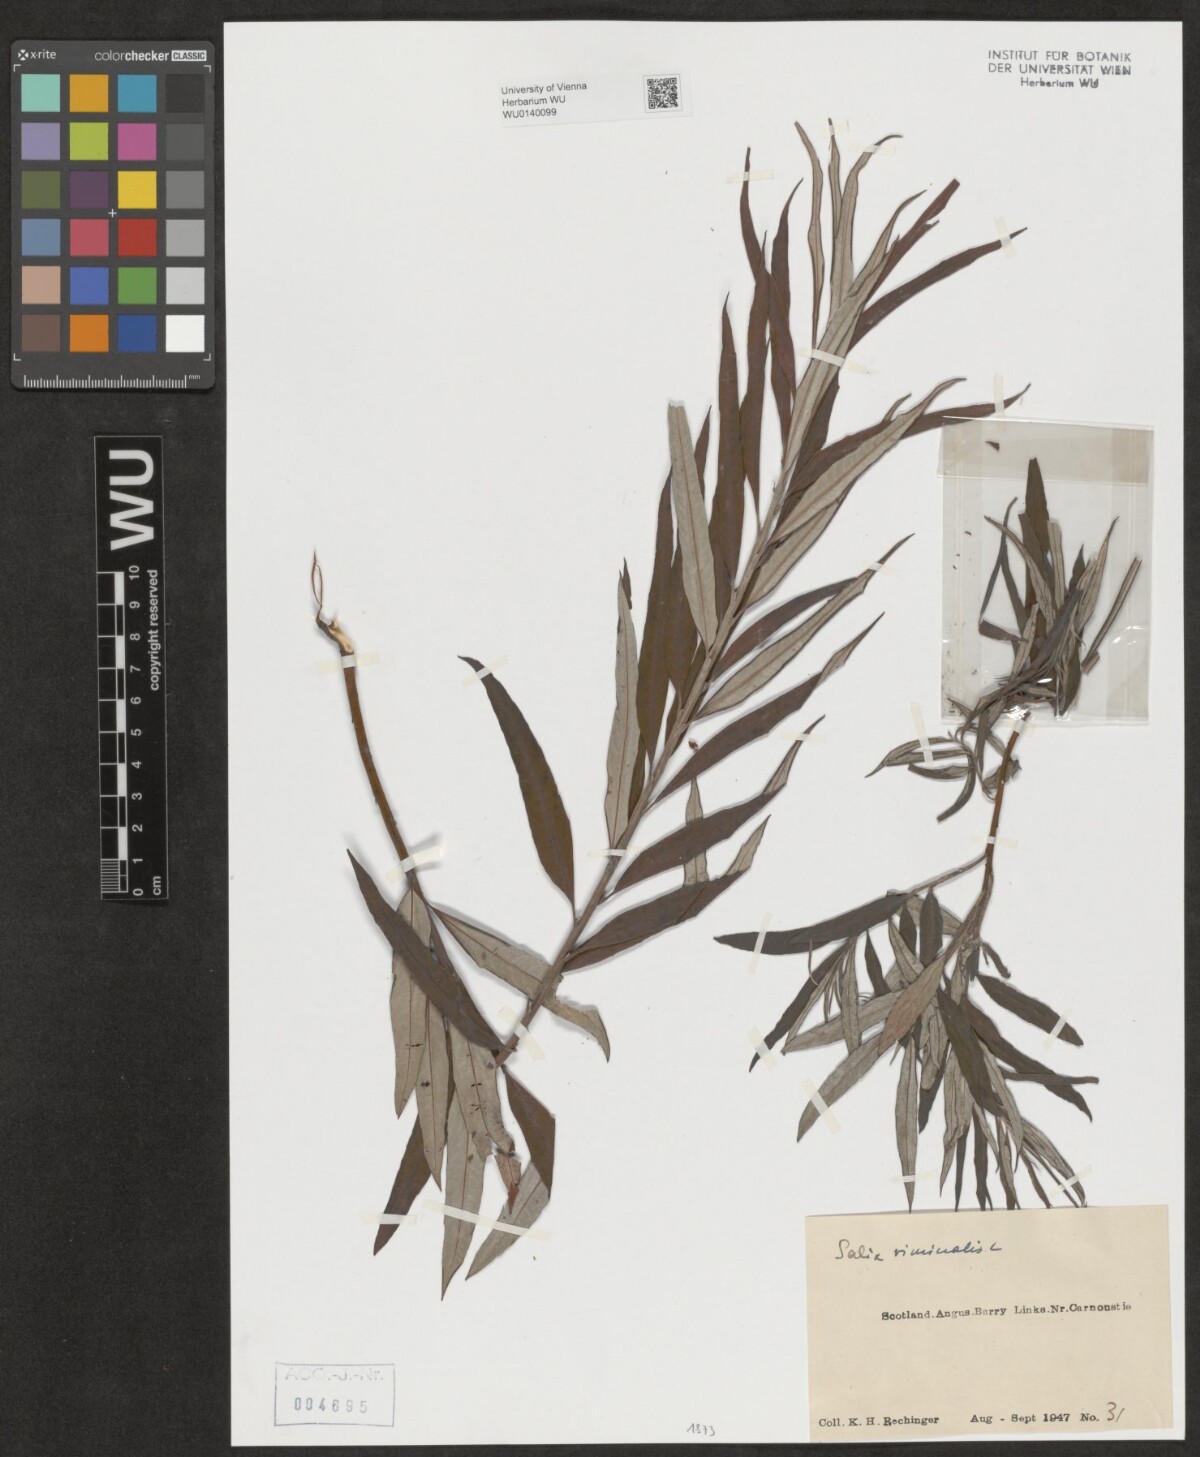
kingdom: Plantae
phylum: Tracheophyta
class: Magnoliopsida
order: Malpighiales
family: Salicaceae
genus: Salix
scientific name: Salix viminalis
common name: Osier
